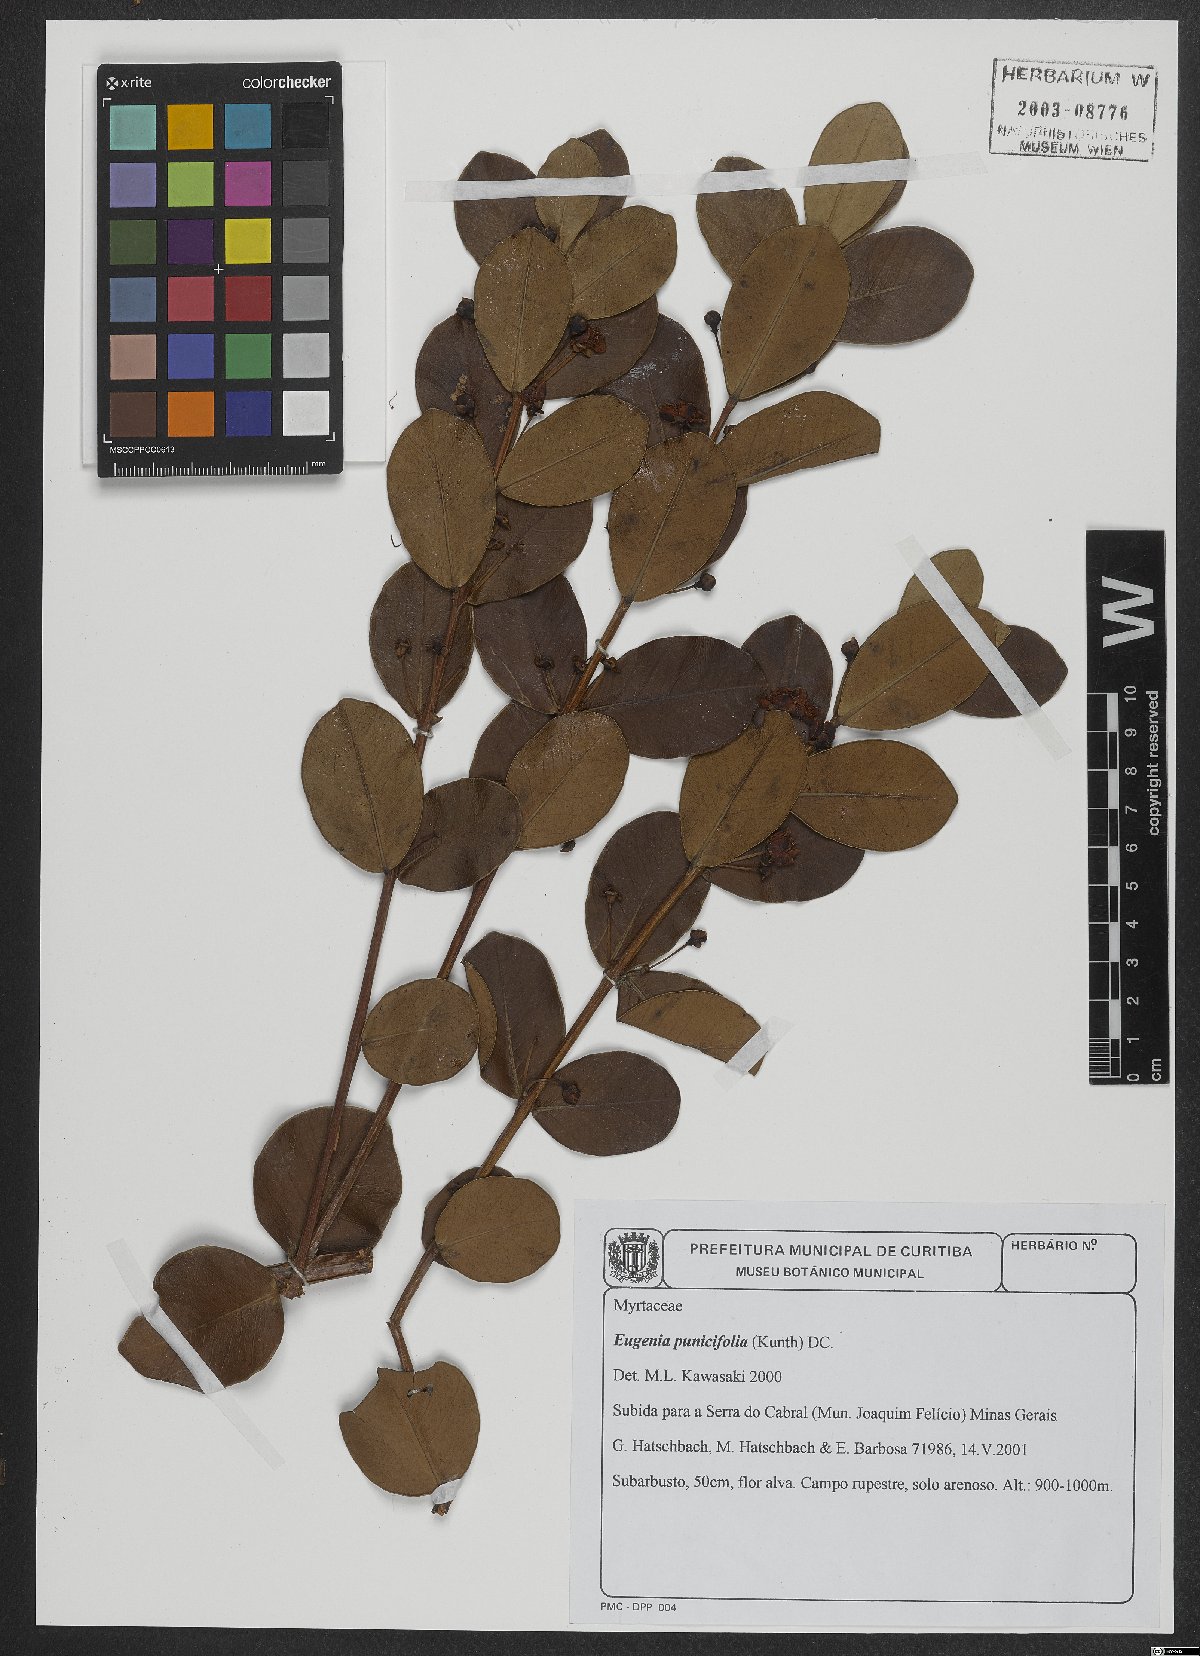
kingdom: Plantae
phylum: Tracheophyta
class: Magnoliopsida
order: Myrtales
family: Myrtaceae
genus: Eugenia
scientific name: Eugenia punicifolia
